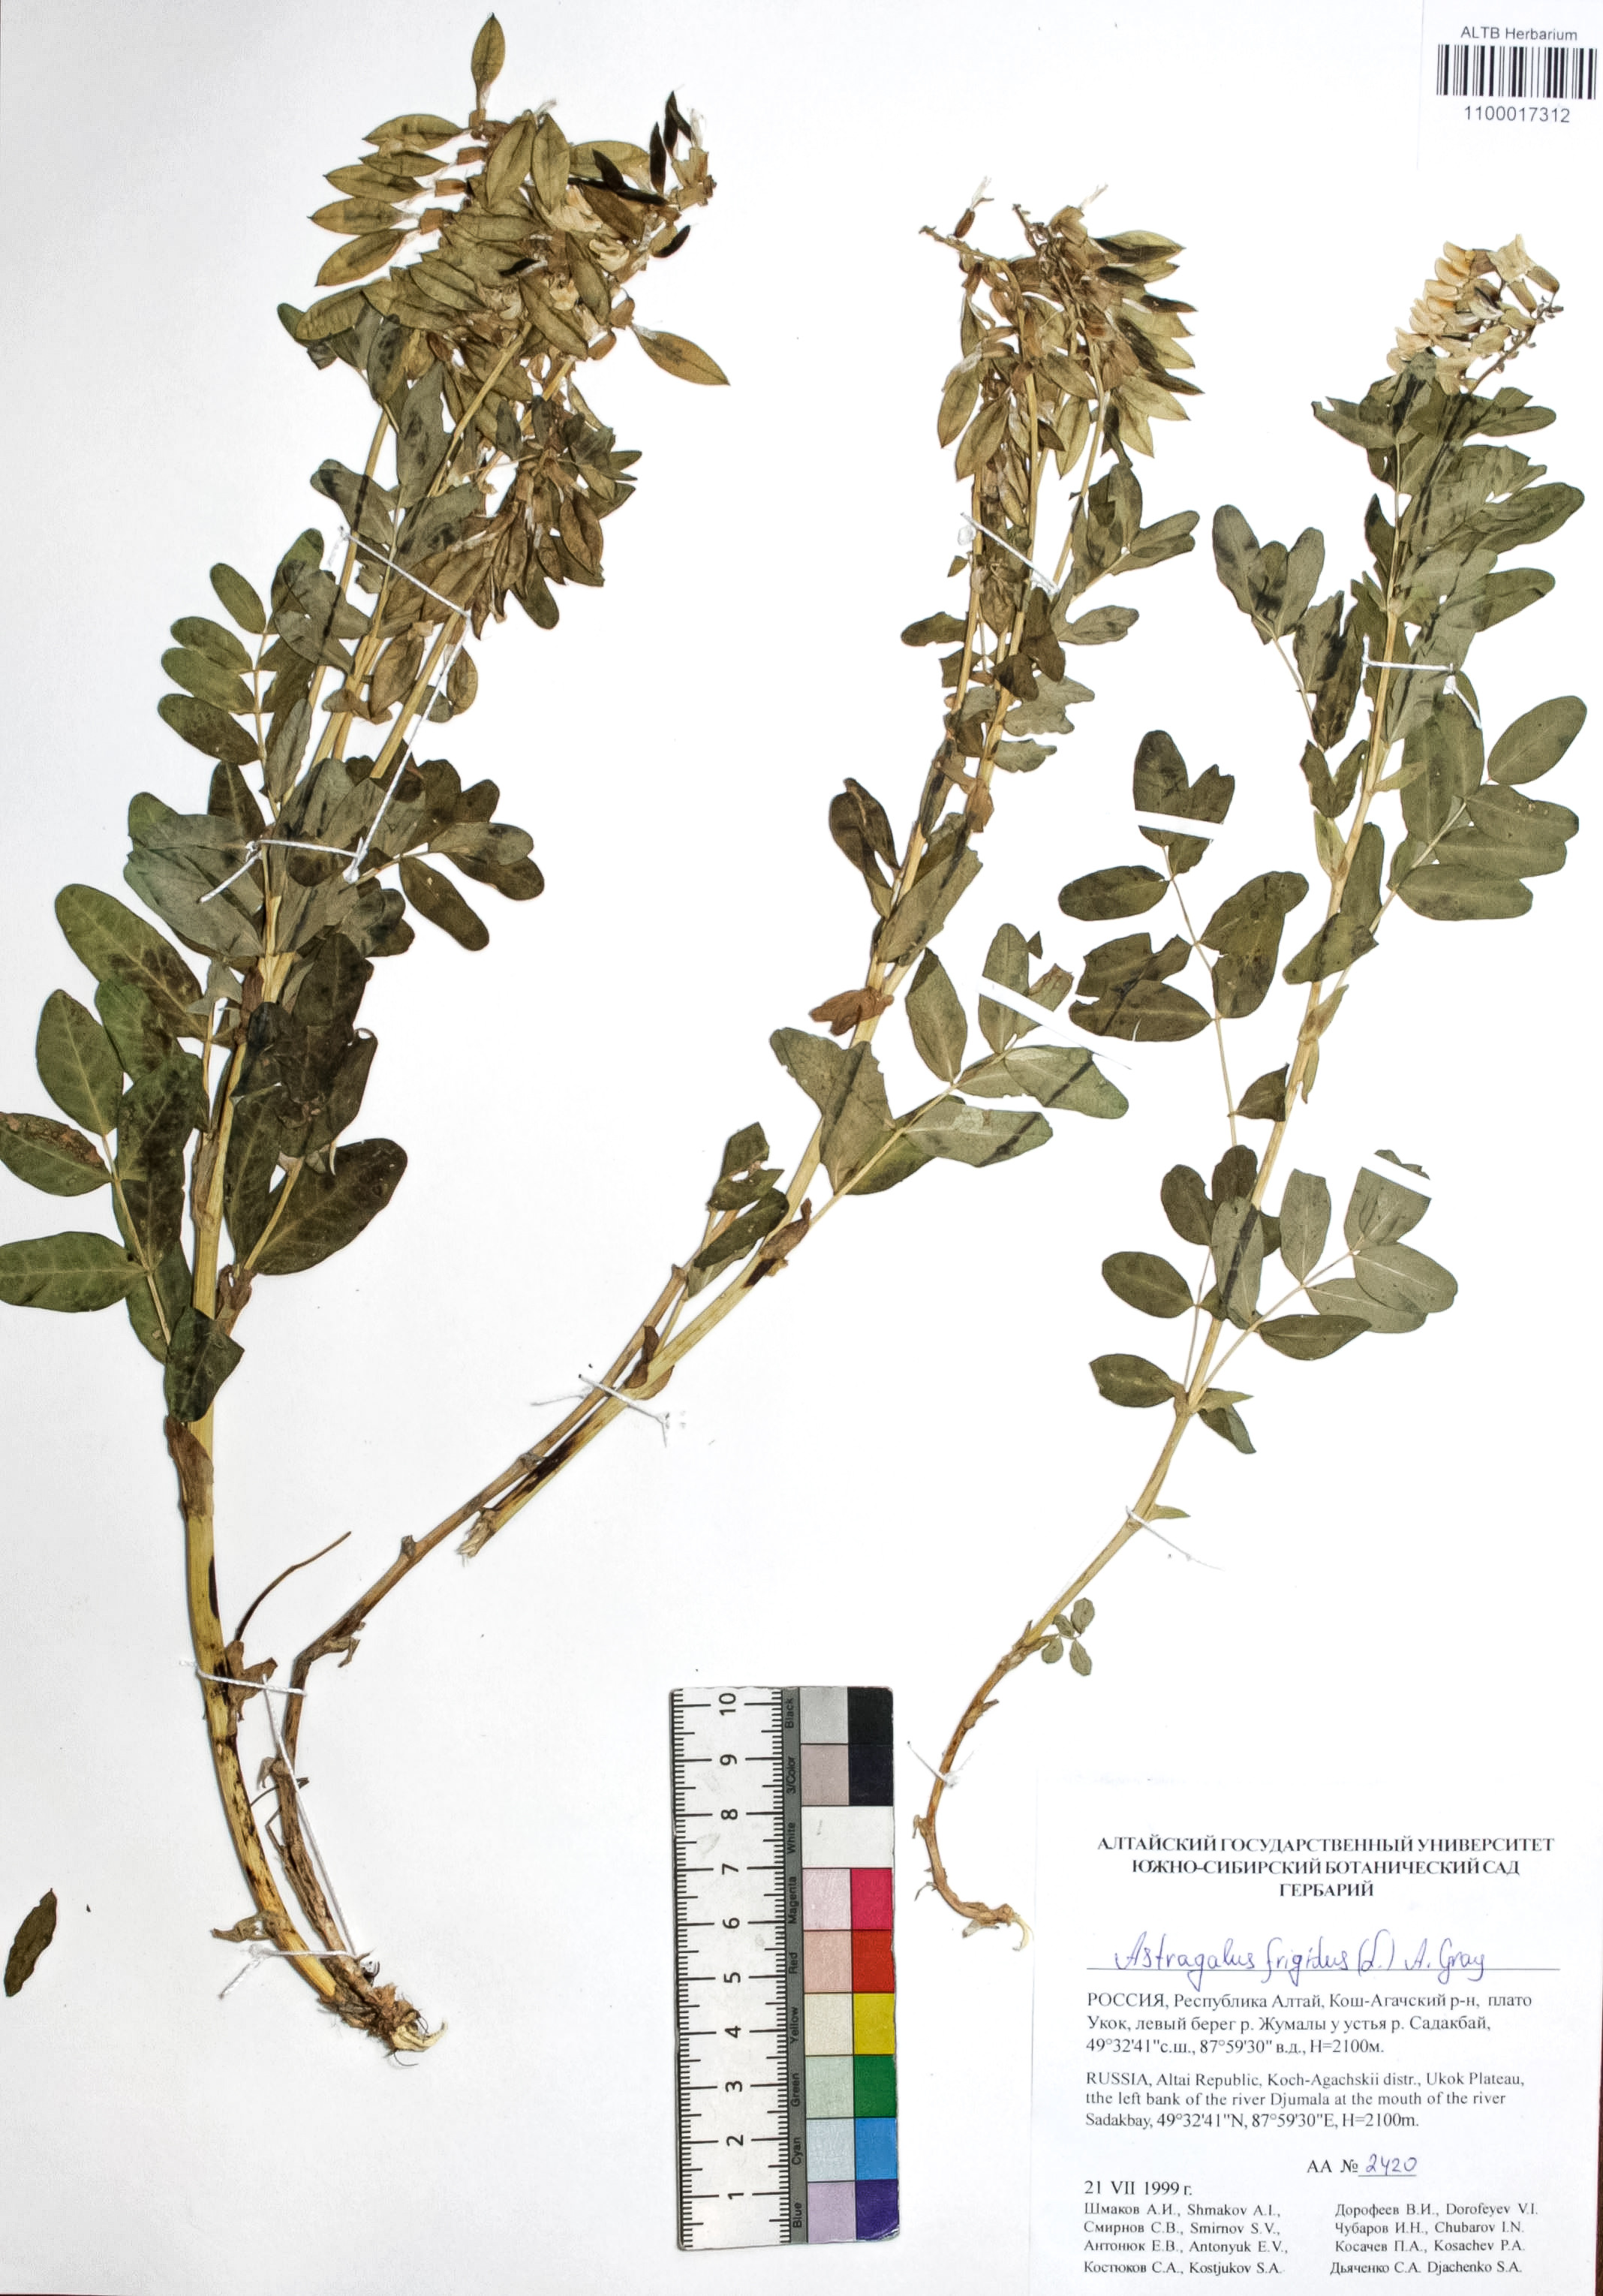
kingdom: Plantae
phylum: Tracheophyta
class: Magnoliopsida
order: Fabales
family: Fabaceae
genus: Astragalus
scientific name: Astragalus frigidus
